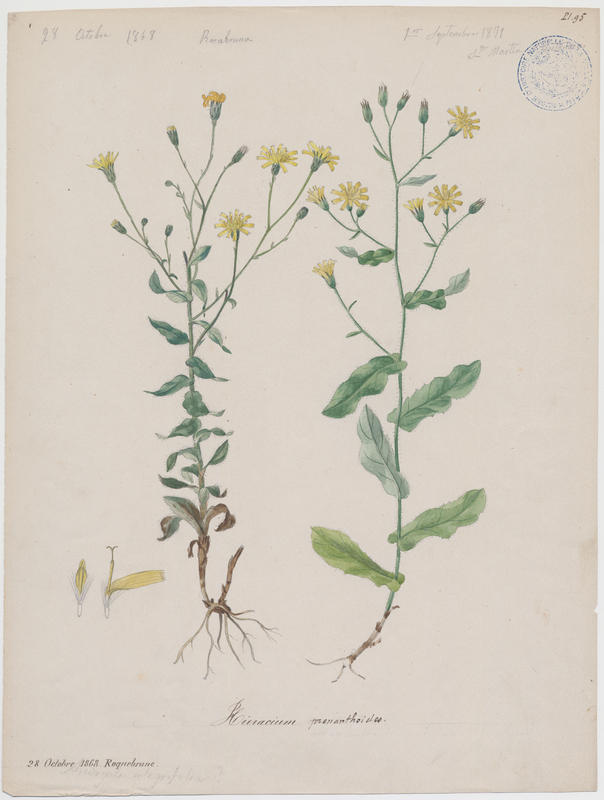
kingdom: Plantae
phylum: Tracheophyta
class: Magnoliopsida
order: Asterales
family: Asteraceae
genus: Hieracium
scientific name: Hieracium prenanthoides
